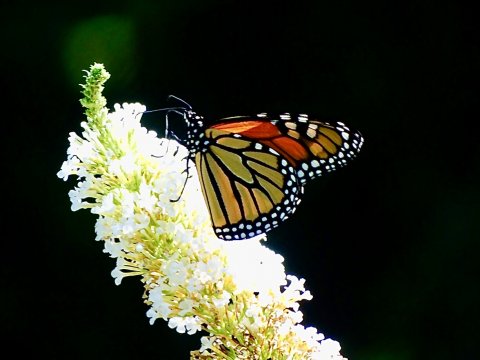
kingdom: Animalia
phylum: Arthropoda
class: Insecta
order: Lepidoptera
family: Nymphalidae
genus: Danaus
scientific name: Danaus plexippus
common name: Monarch
